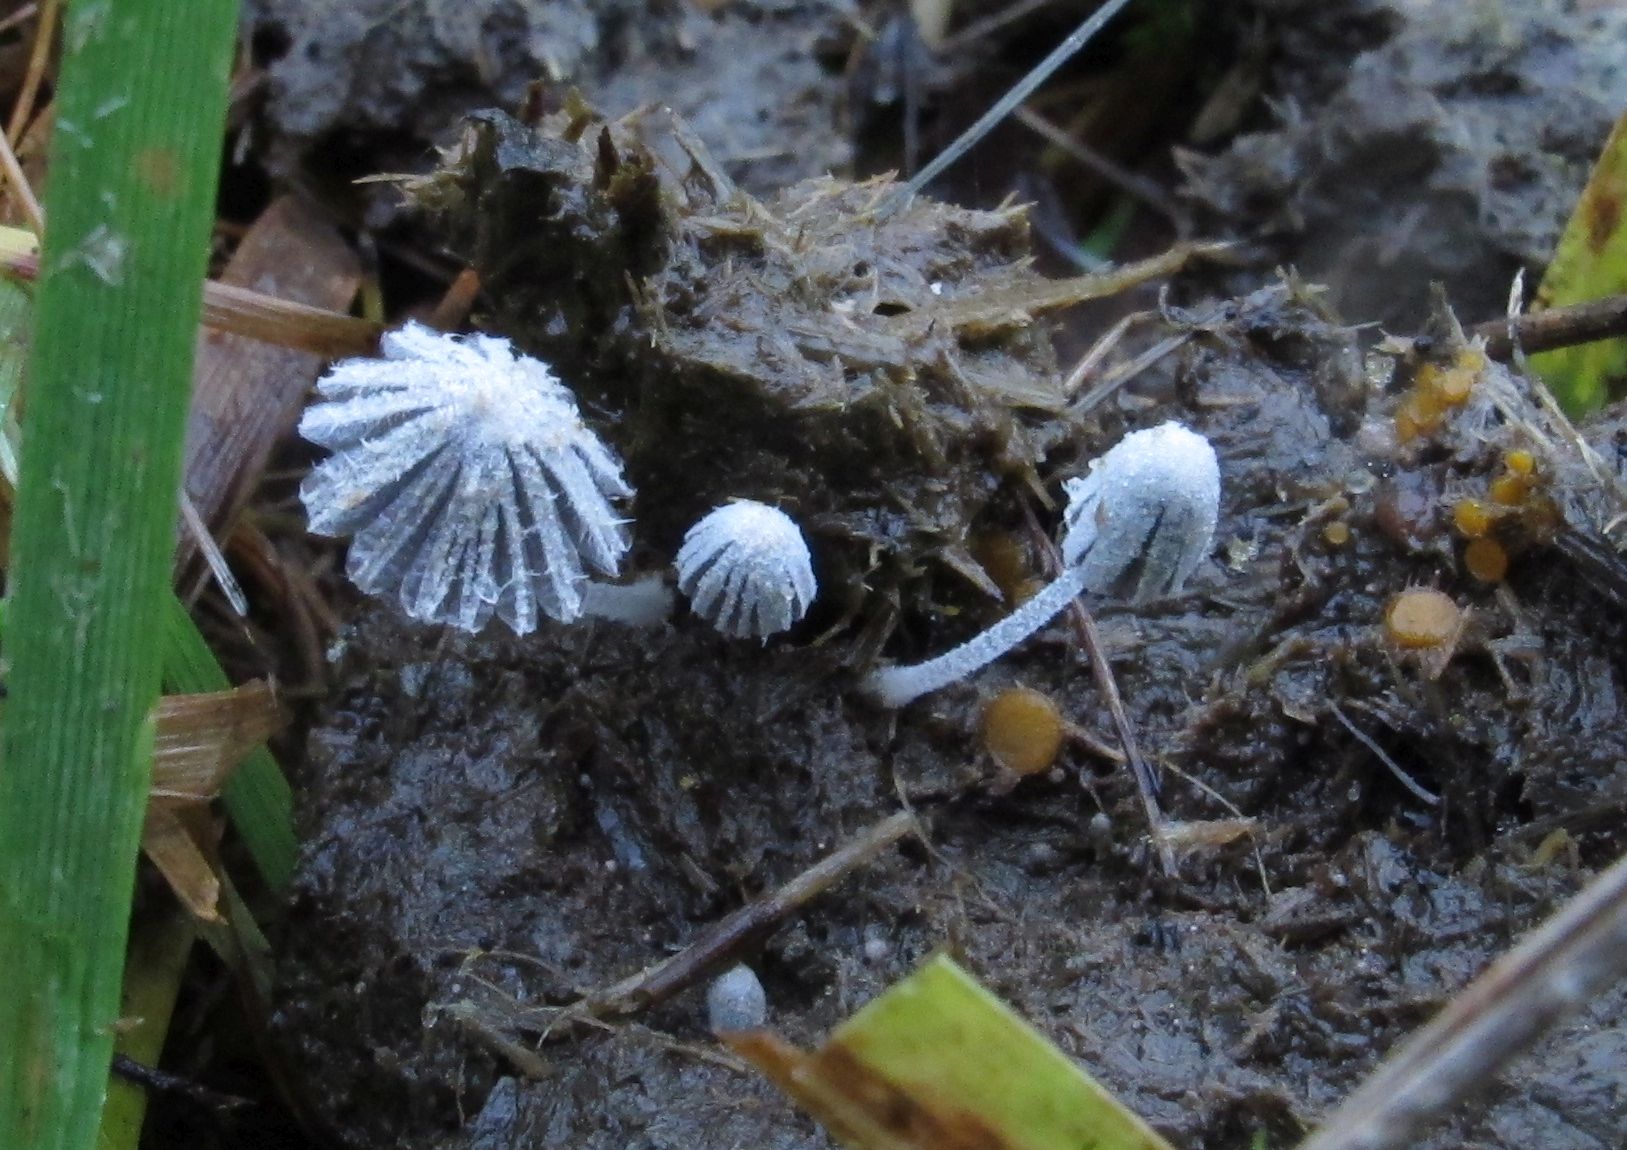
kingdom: Fungi
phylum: Basidiomycota
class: Agaricomycetes
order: Agaricales
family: Psathyrellaceae
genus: Coprinopsis
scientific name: Coprinopsis stercorea
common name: pjusket blækhat
